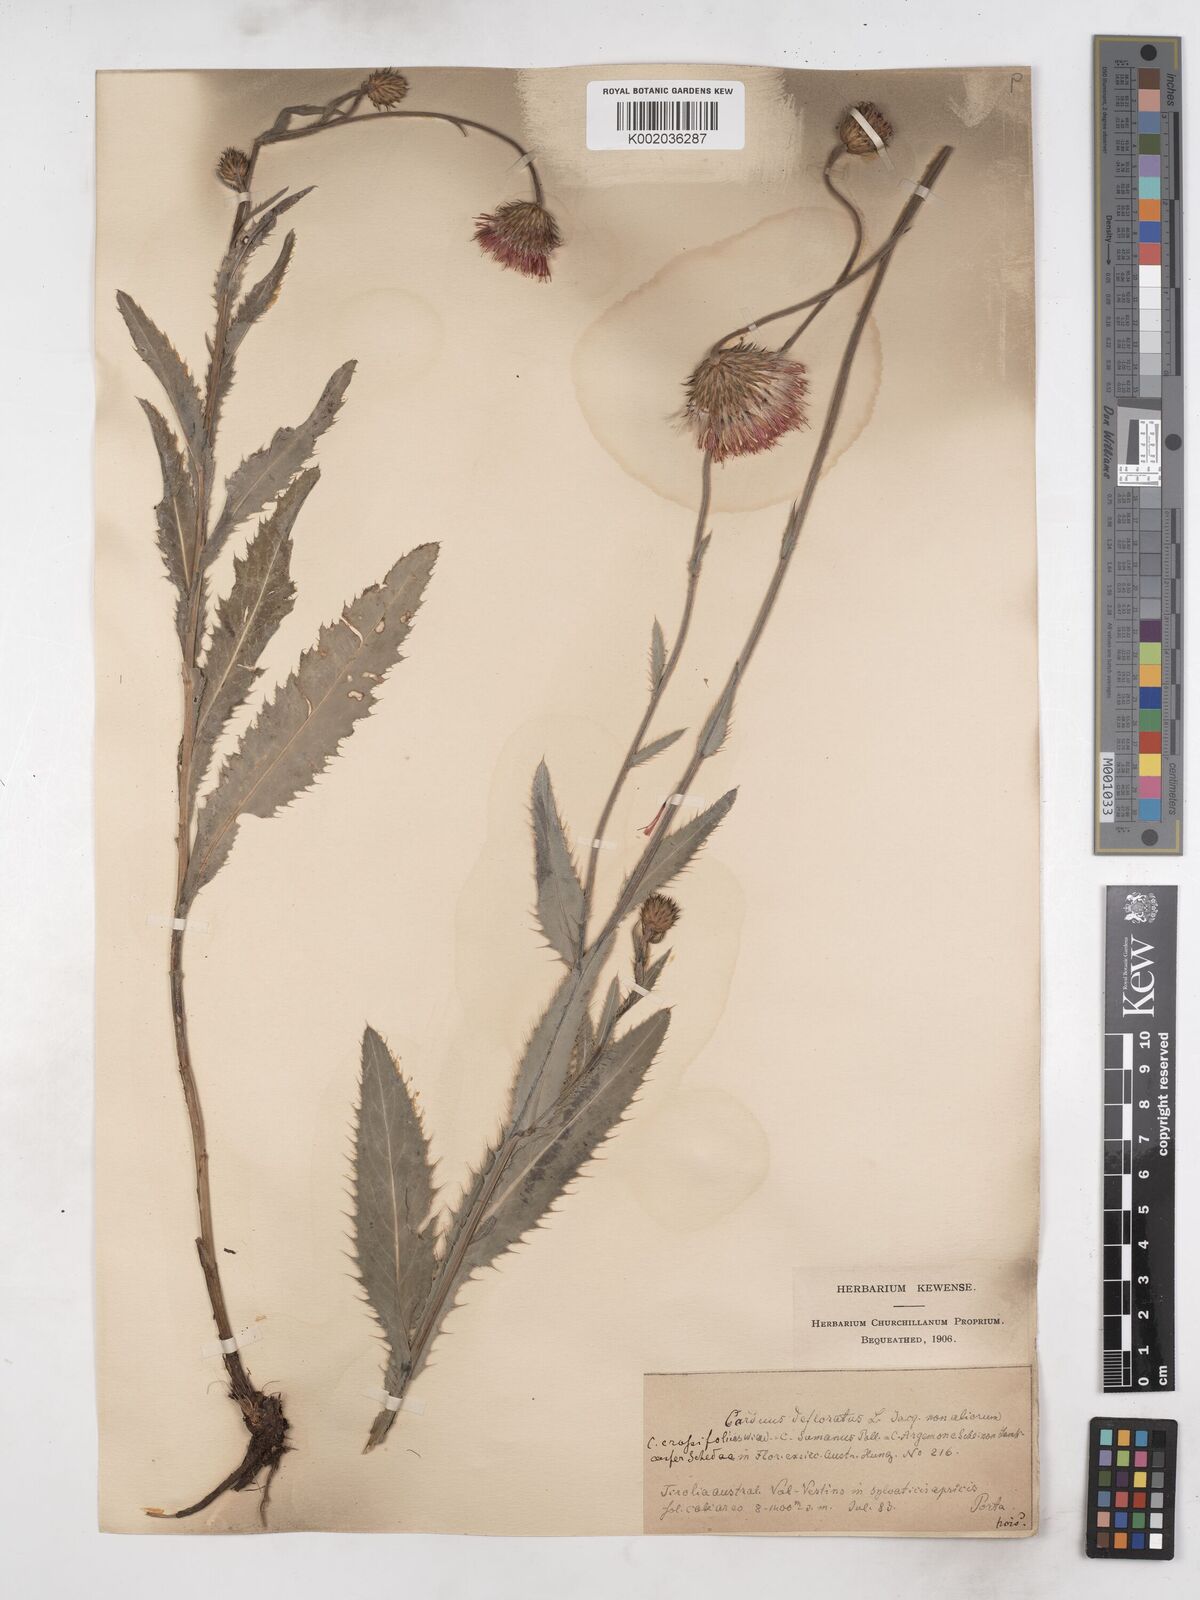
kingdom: Plantae
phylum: Tracheophyta
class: Magnoliopsida
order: Asterales
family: Asteraceae
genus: Carduus
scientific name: Carduus defloratus
